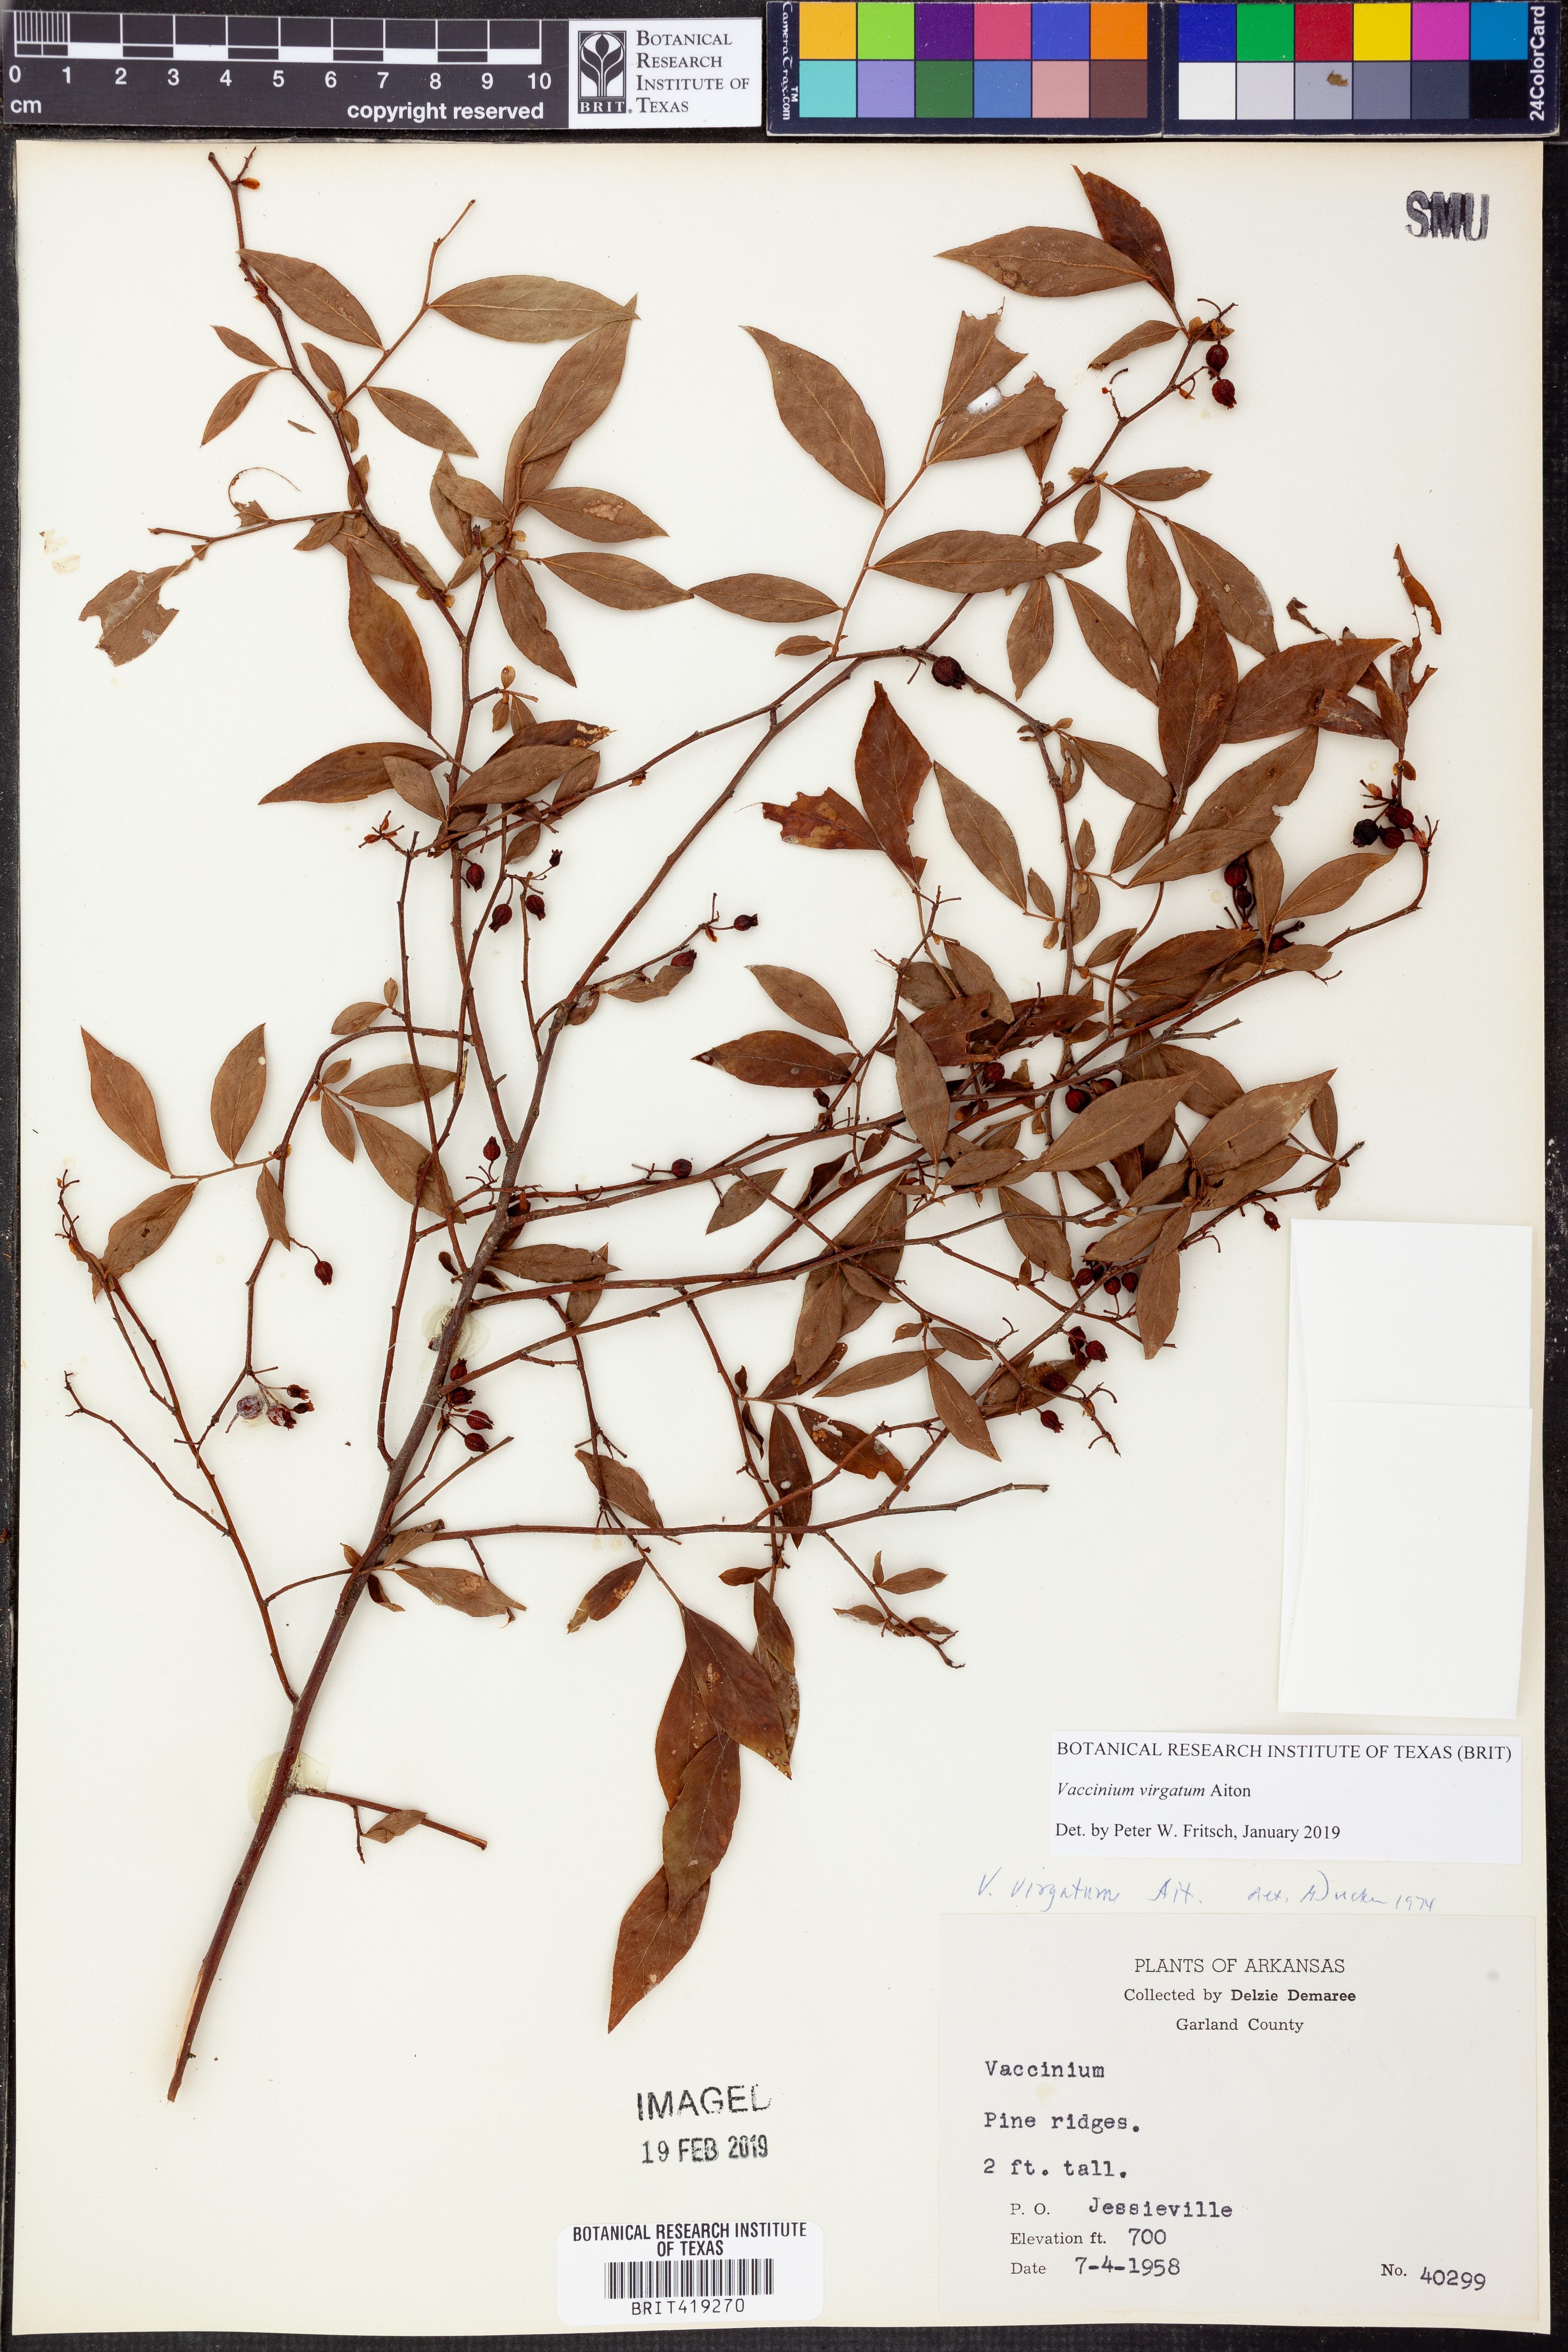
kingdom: Plantae
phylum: Tracheophyta
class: Magnoliopsida
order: Ericales
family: Ericaceae
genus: Vaccinium
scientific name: Vaccinium corymbosum
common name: Blueberry
